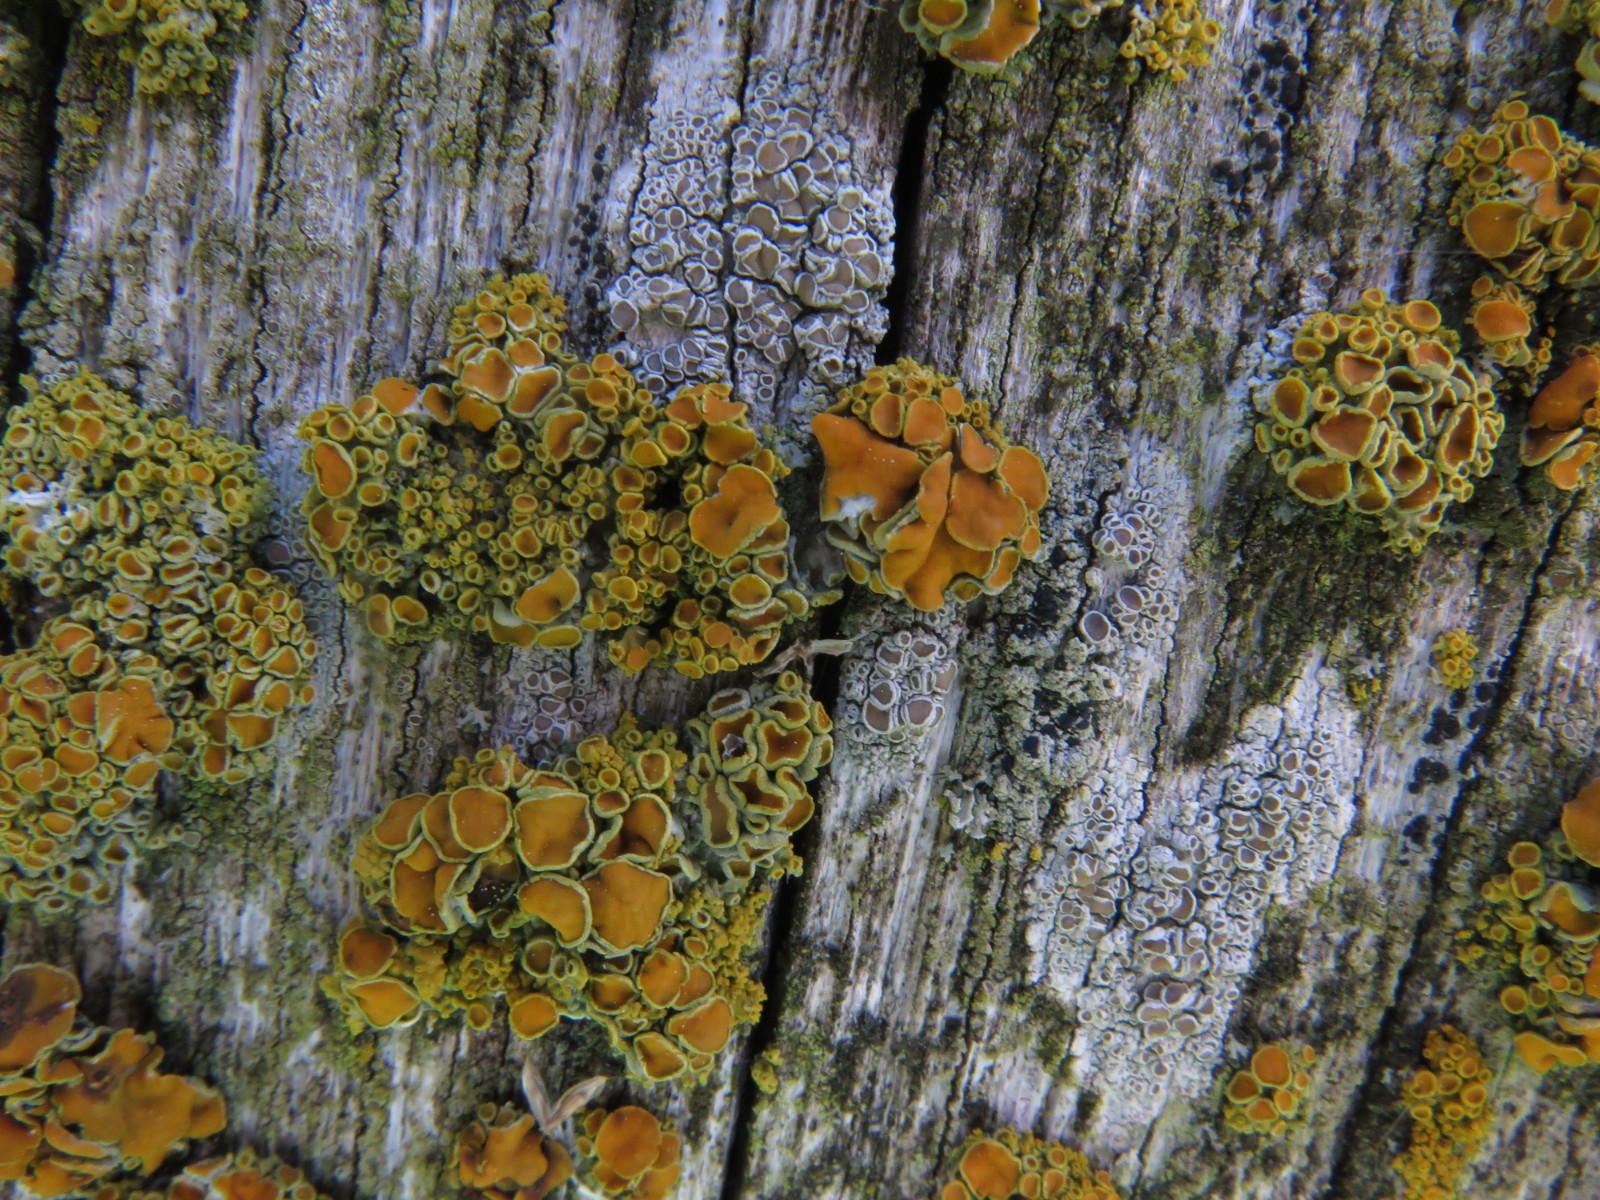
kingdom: Fungi
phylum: Ascomycota
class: Lecanoromycetes
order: Teloschistales
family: Teloschistaceae
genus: Polycauliona
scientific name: Polycauliona polycarpa
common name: mangefrugtet orangelav
